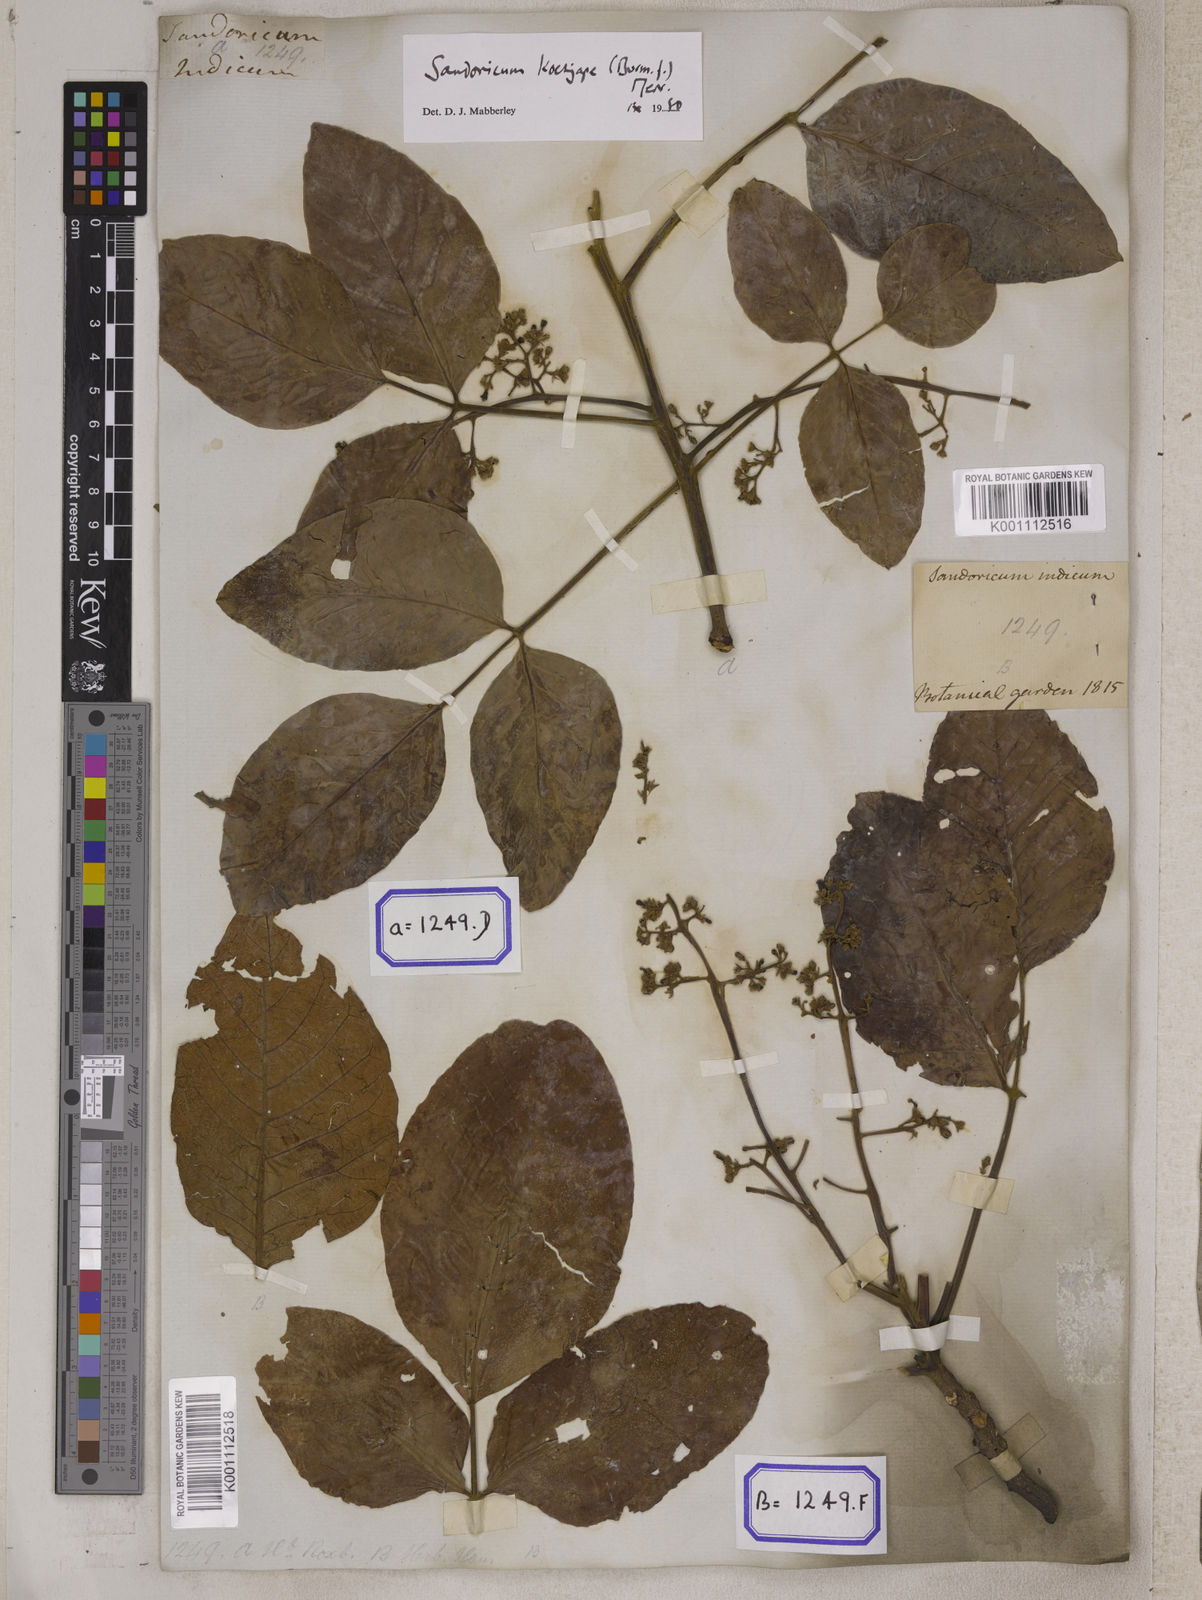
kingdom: Plantae
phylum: Tracheophyta
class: Magnoliopsida
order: Sapindales
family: Meliaceae
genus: Sandoricum
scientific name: Sandoricum koetjape
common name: Santol
